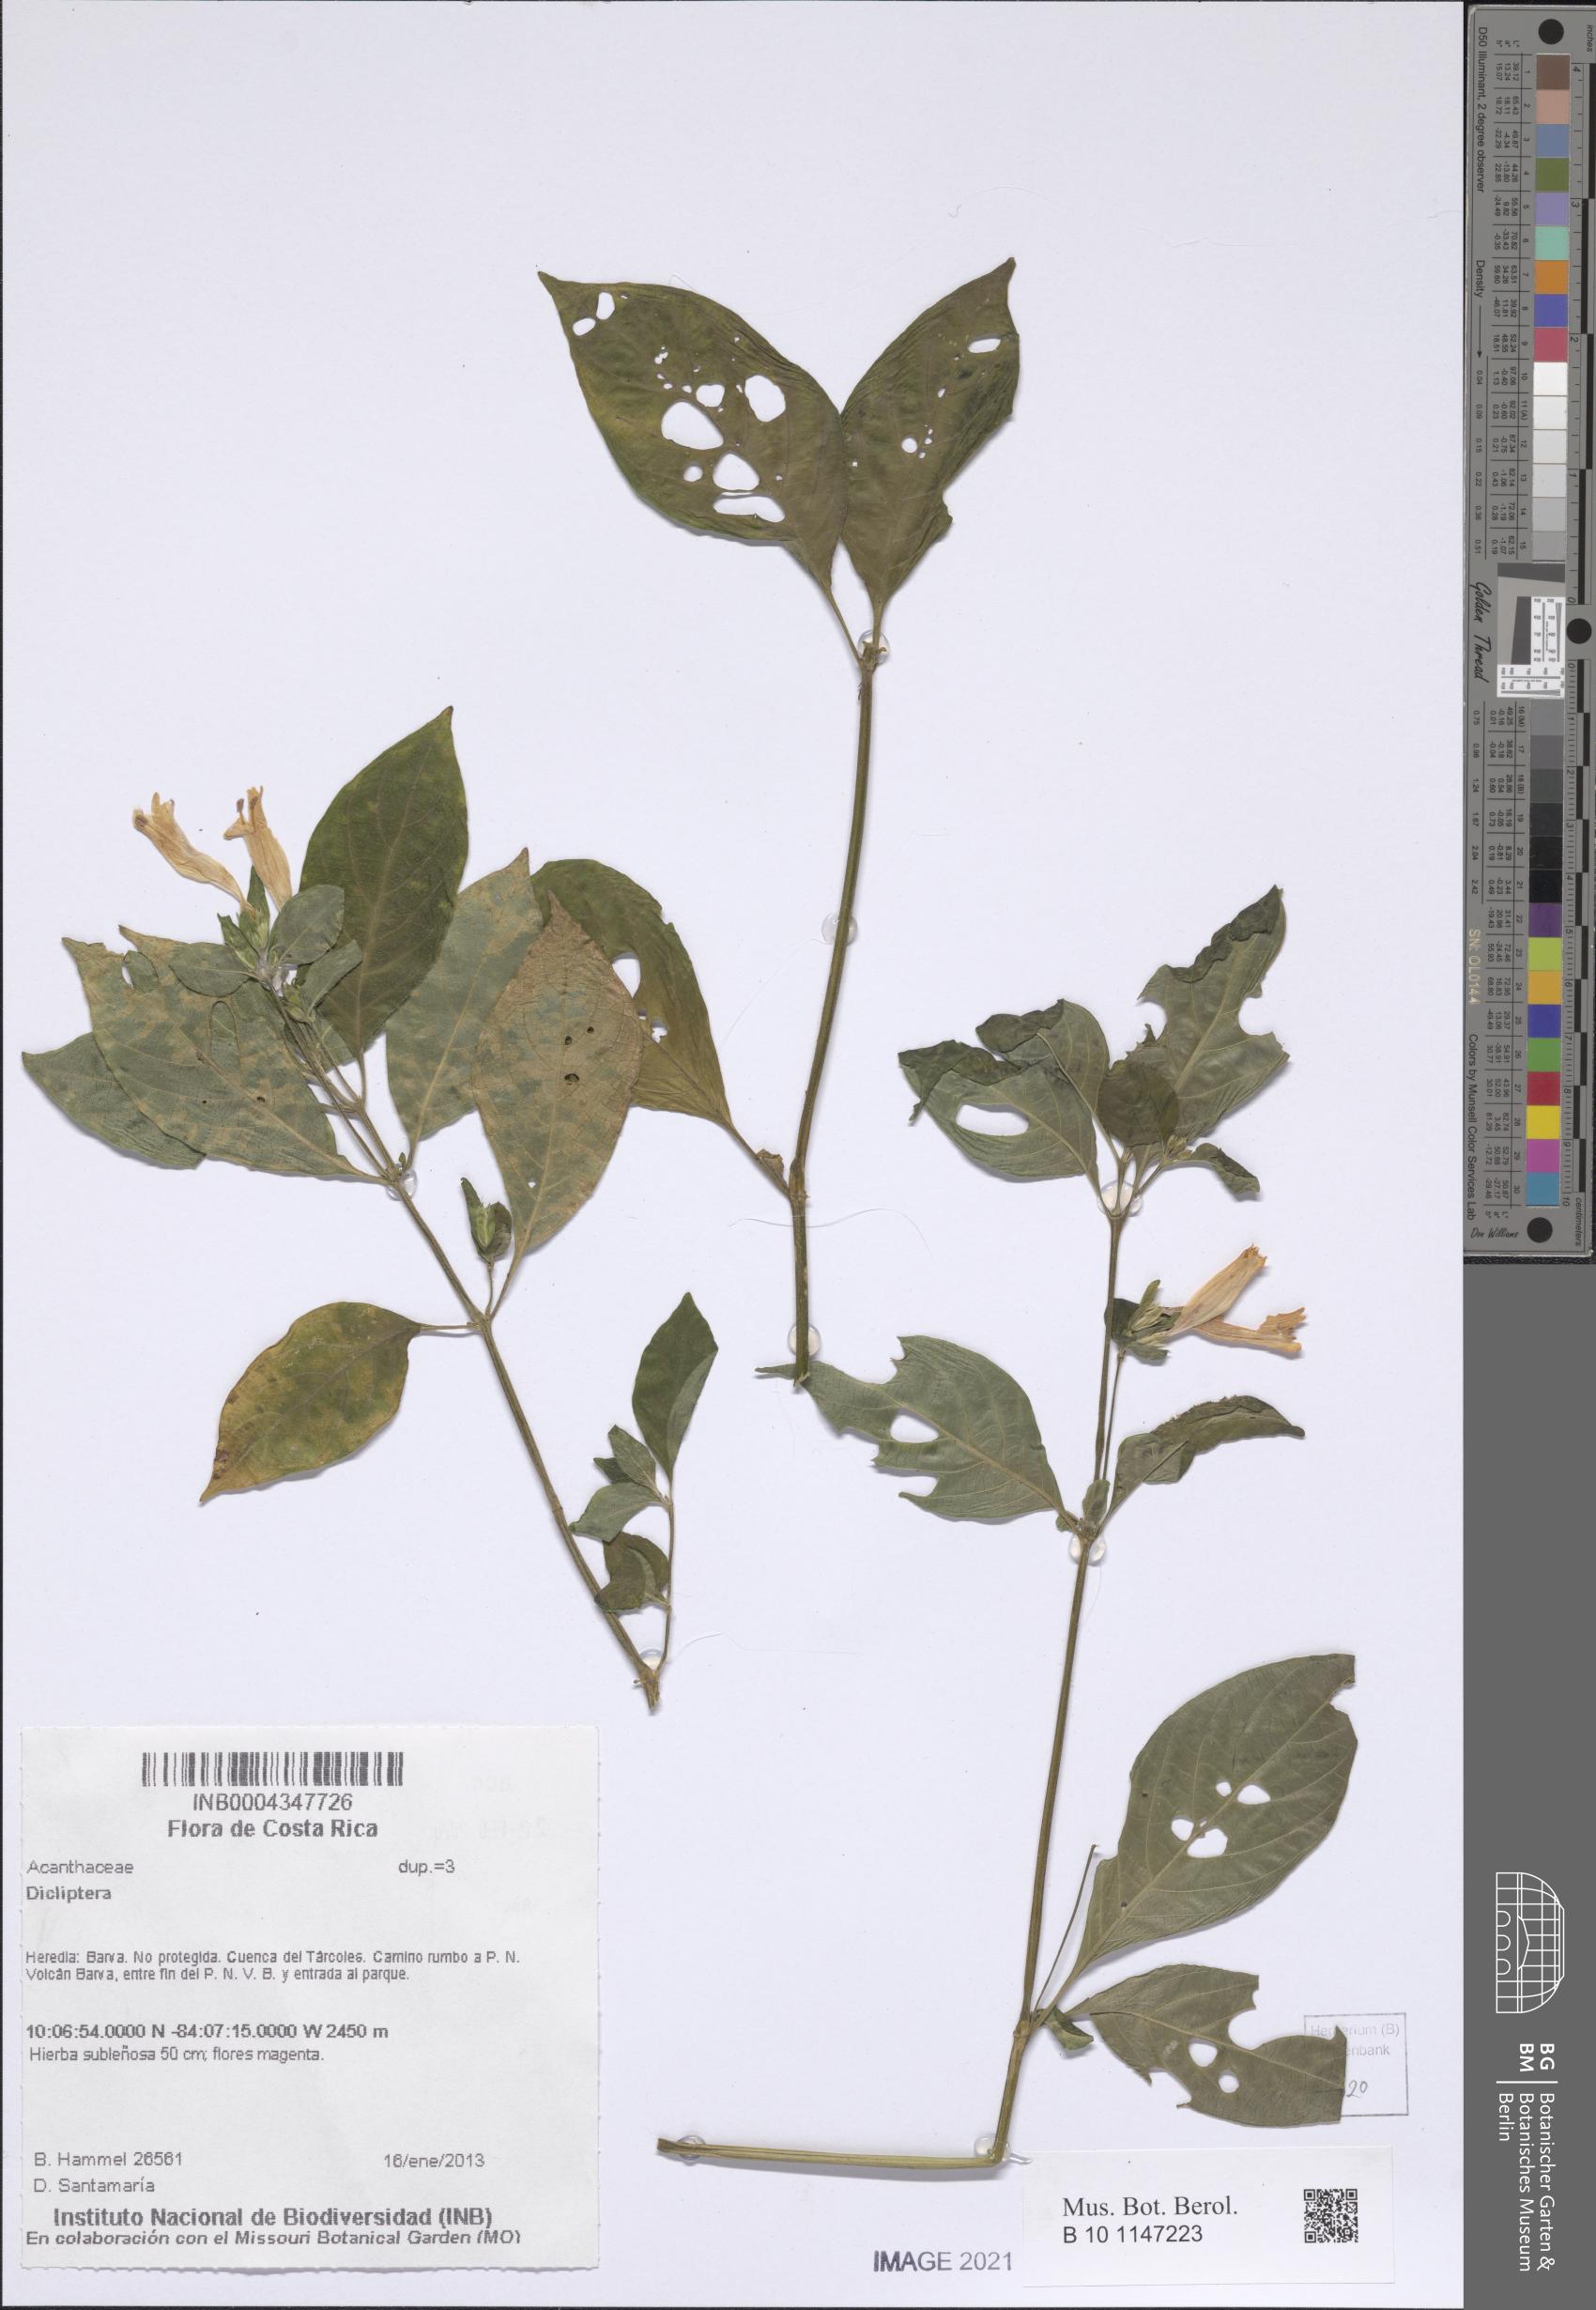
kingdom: Plantae
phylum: Tracheophyta
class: Magnoliopsida
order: Lamiales
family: Acanthaceae
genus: Dicliptera
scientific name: Dicliptera
